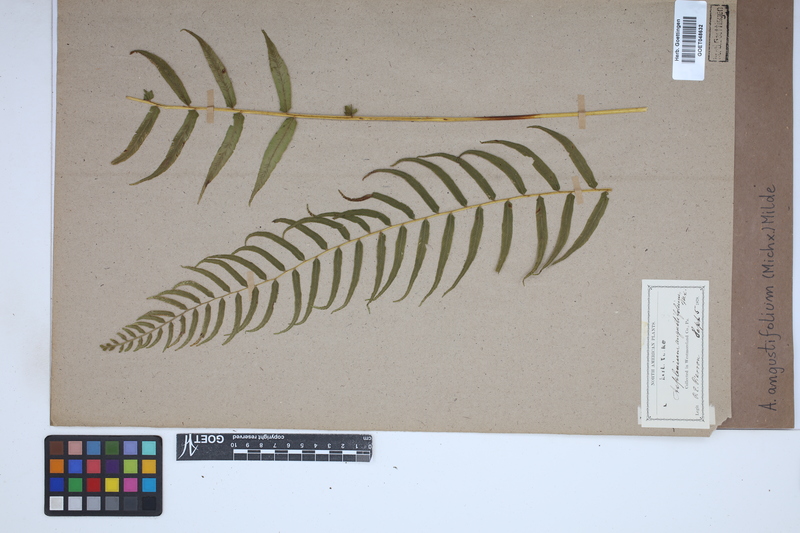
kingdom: Plantae
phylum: Tracheophyta
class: Polypodiopsida
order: Polypodiales
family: Diplaziopsidaceae
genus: Homalosorus
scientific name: Homalosorus pycnocarpos
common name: Glade fern
